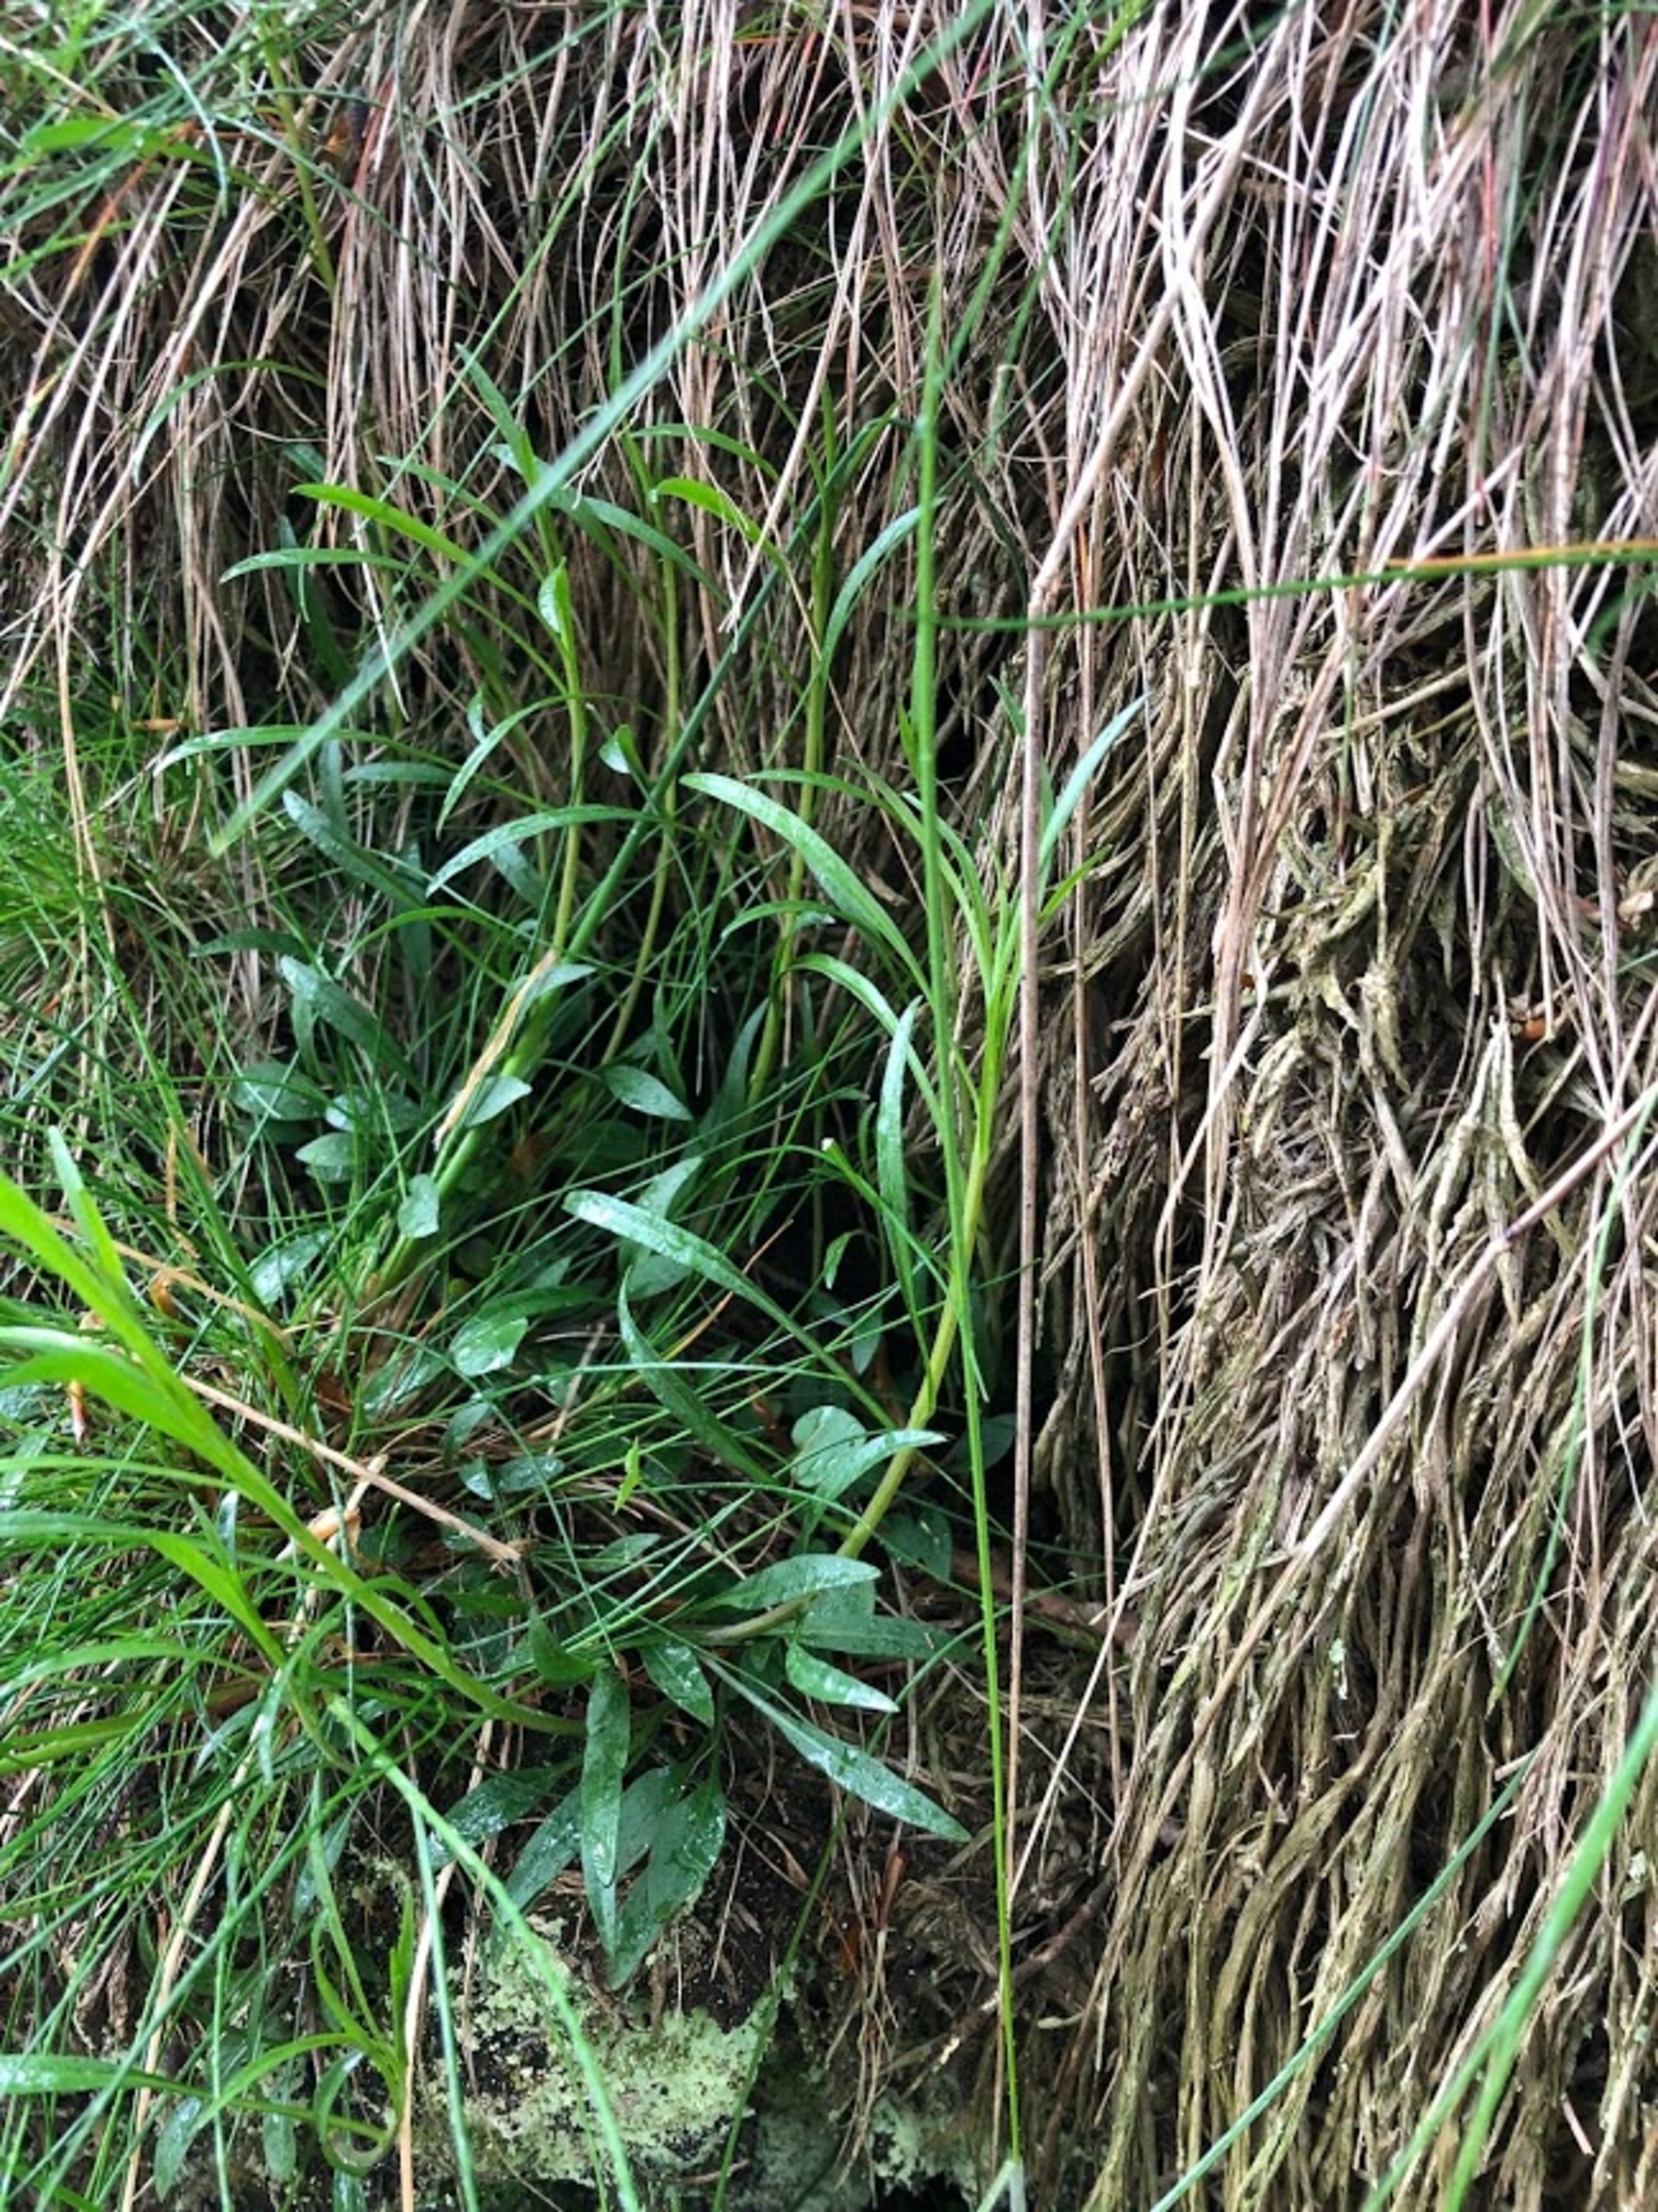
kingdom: Plantae
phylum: Tracheophyta
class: Magnoliopsida
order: Asterales
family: Campanulaceae
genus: Campanula
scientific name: Campanula rotundifolia
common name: Liden klokke
